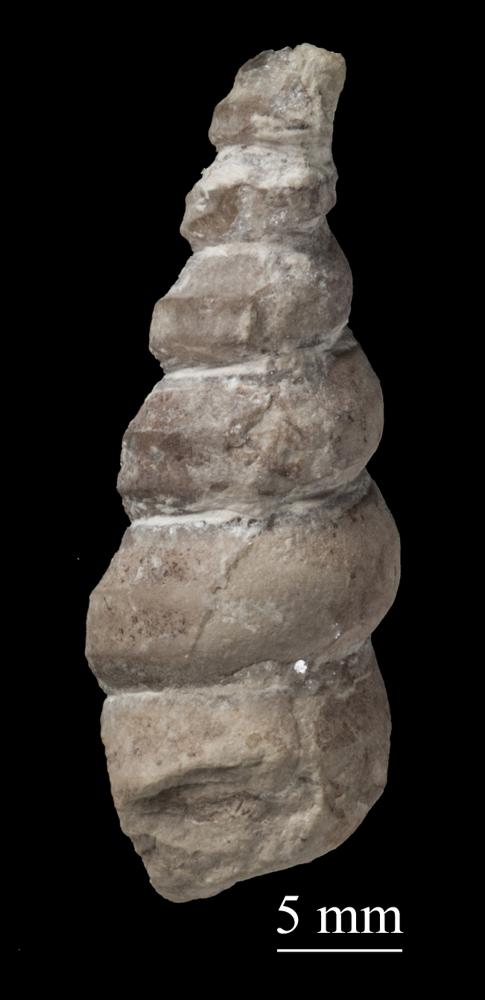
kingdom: Animalia
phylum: Mollusca
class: Gastropoda
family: Lophospiridae
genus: Ectomaria
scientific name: Ectomaria Murchisonia nieszkowskii
